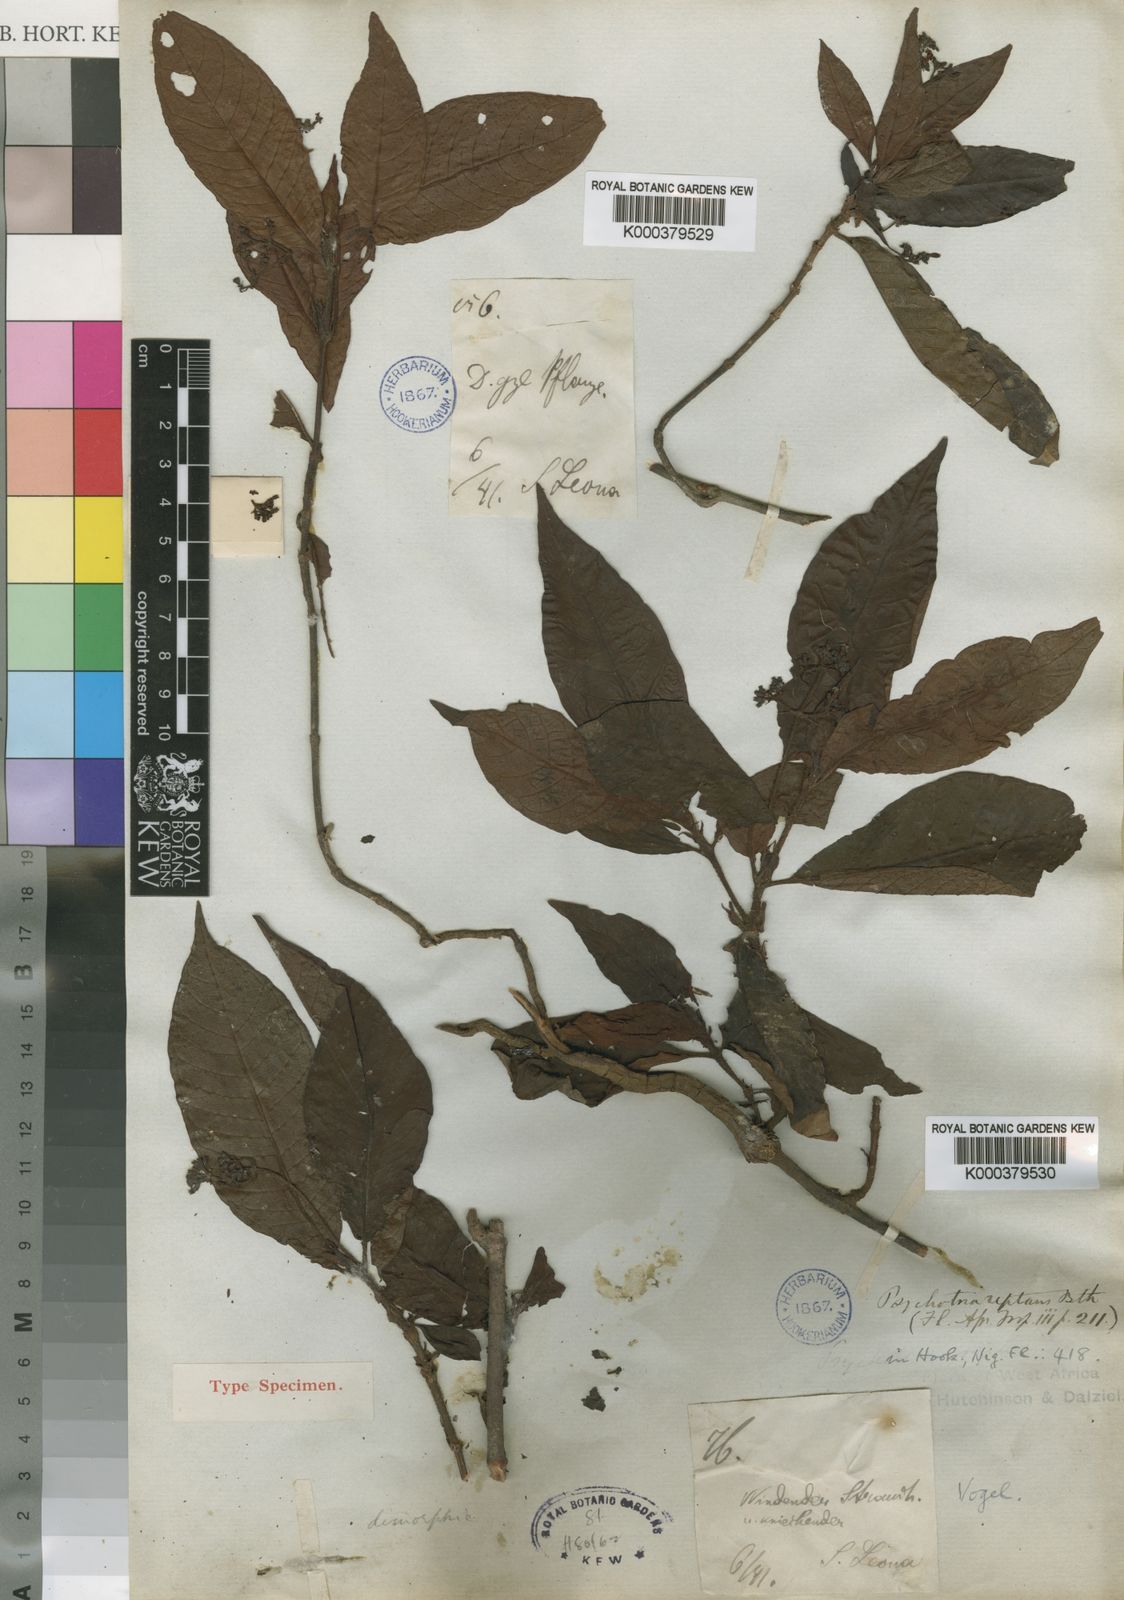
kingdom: Plantae
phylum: Tracheophyta
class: Magnoliopsida
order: Gentianales
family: Rubiaceae
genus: Psychotria
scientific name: Psychotria reptans
